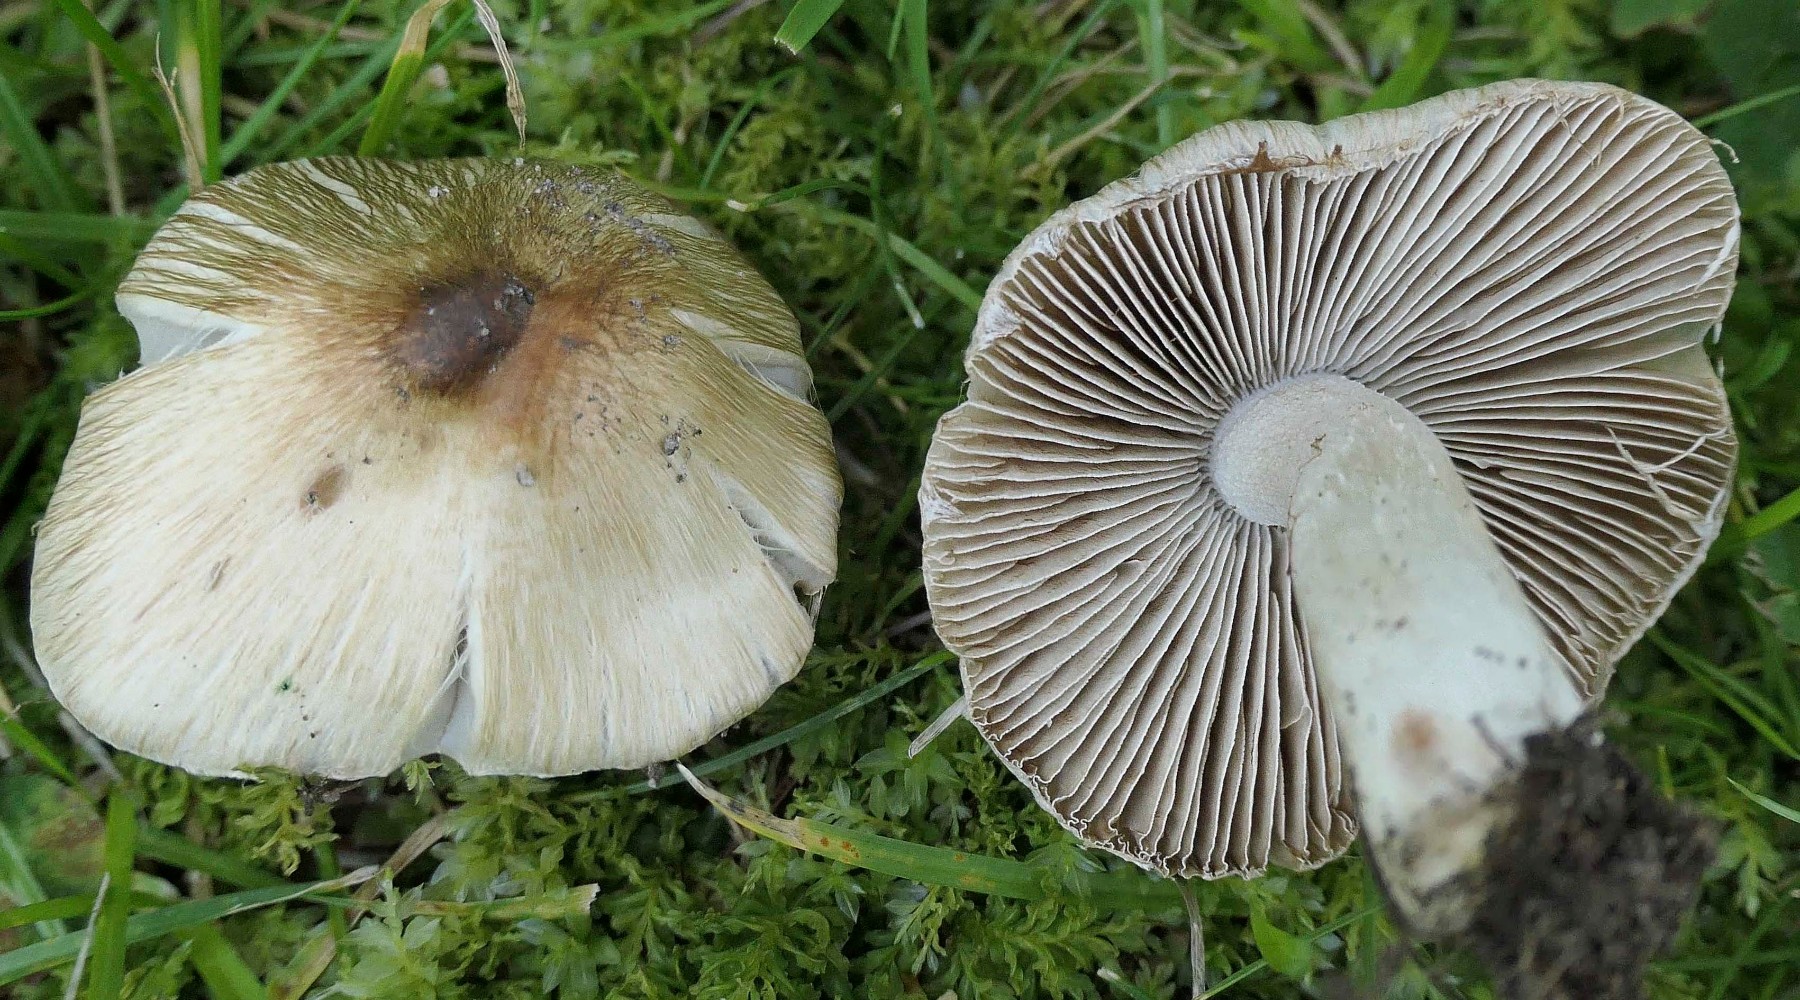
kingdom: Fungi
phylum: Basidiomycota
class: Agaricomycetes
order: Agaricales
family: Inocybaceae
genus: Pseudosperma
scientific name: Pseudosperma
